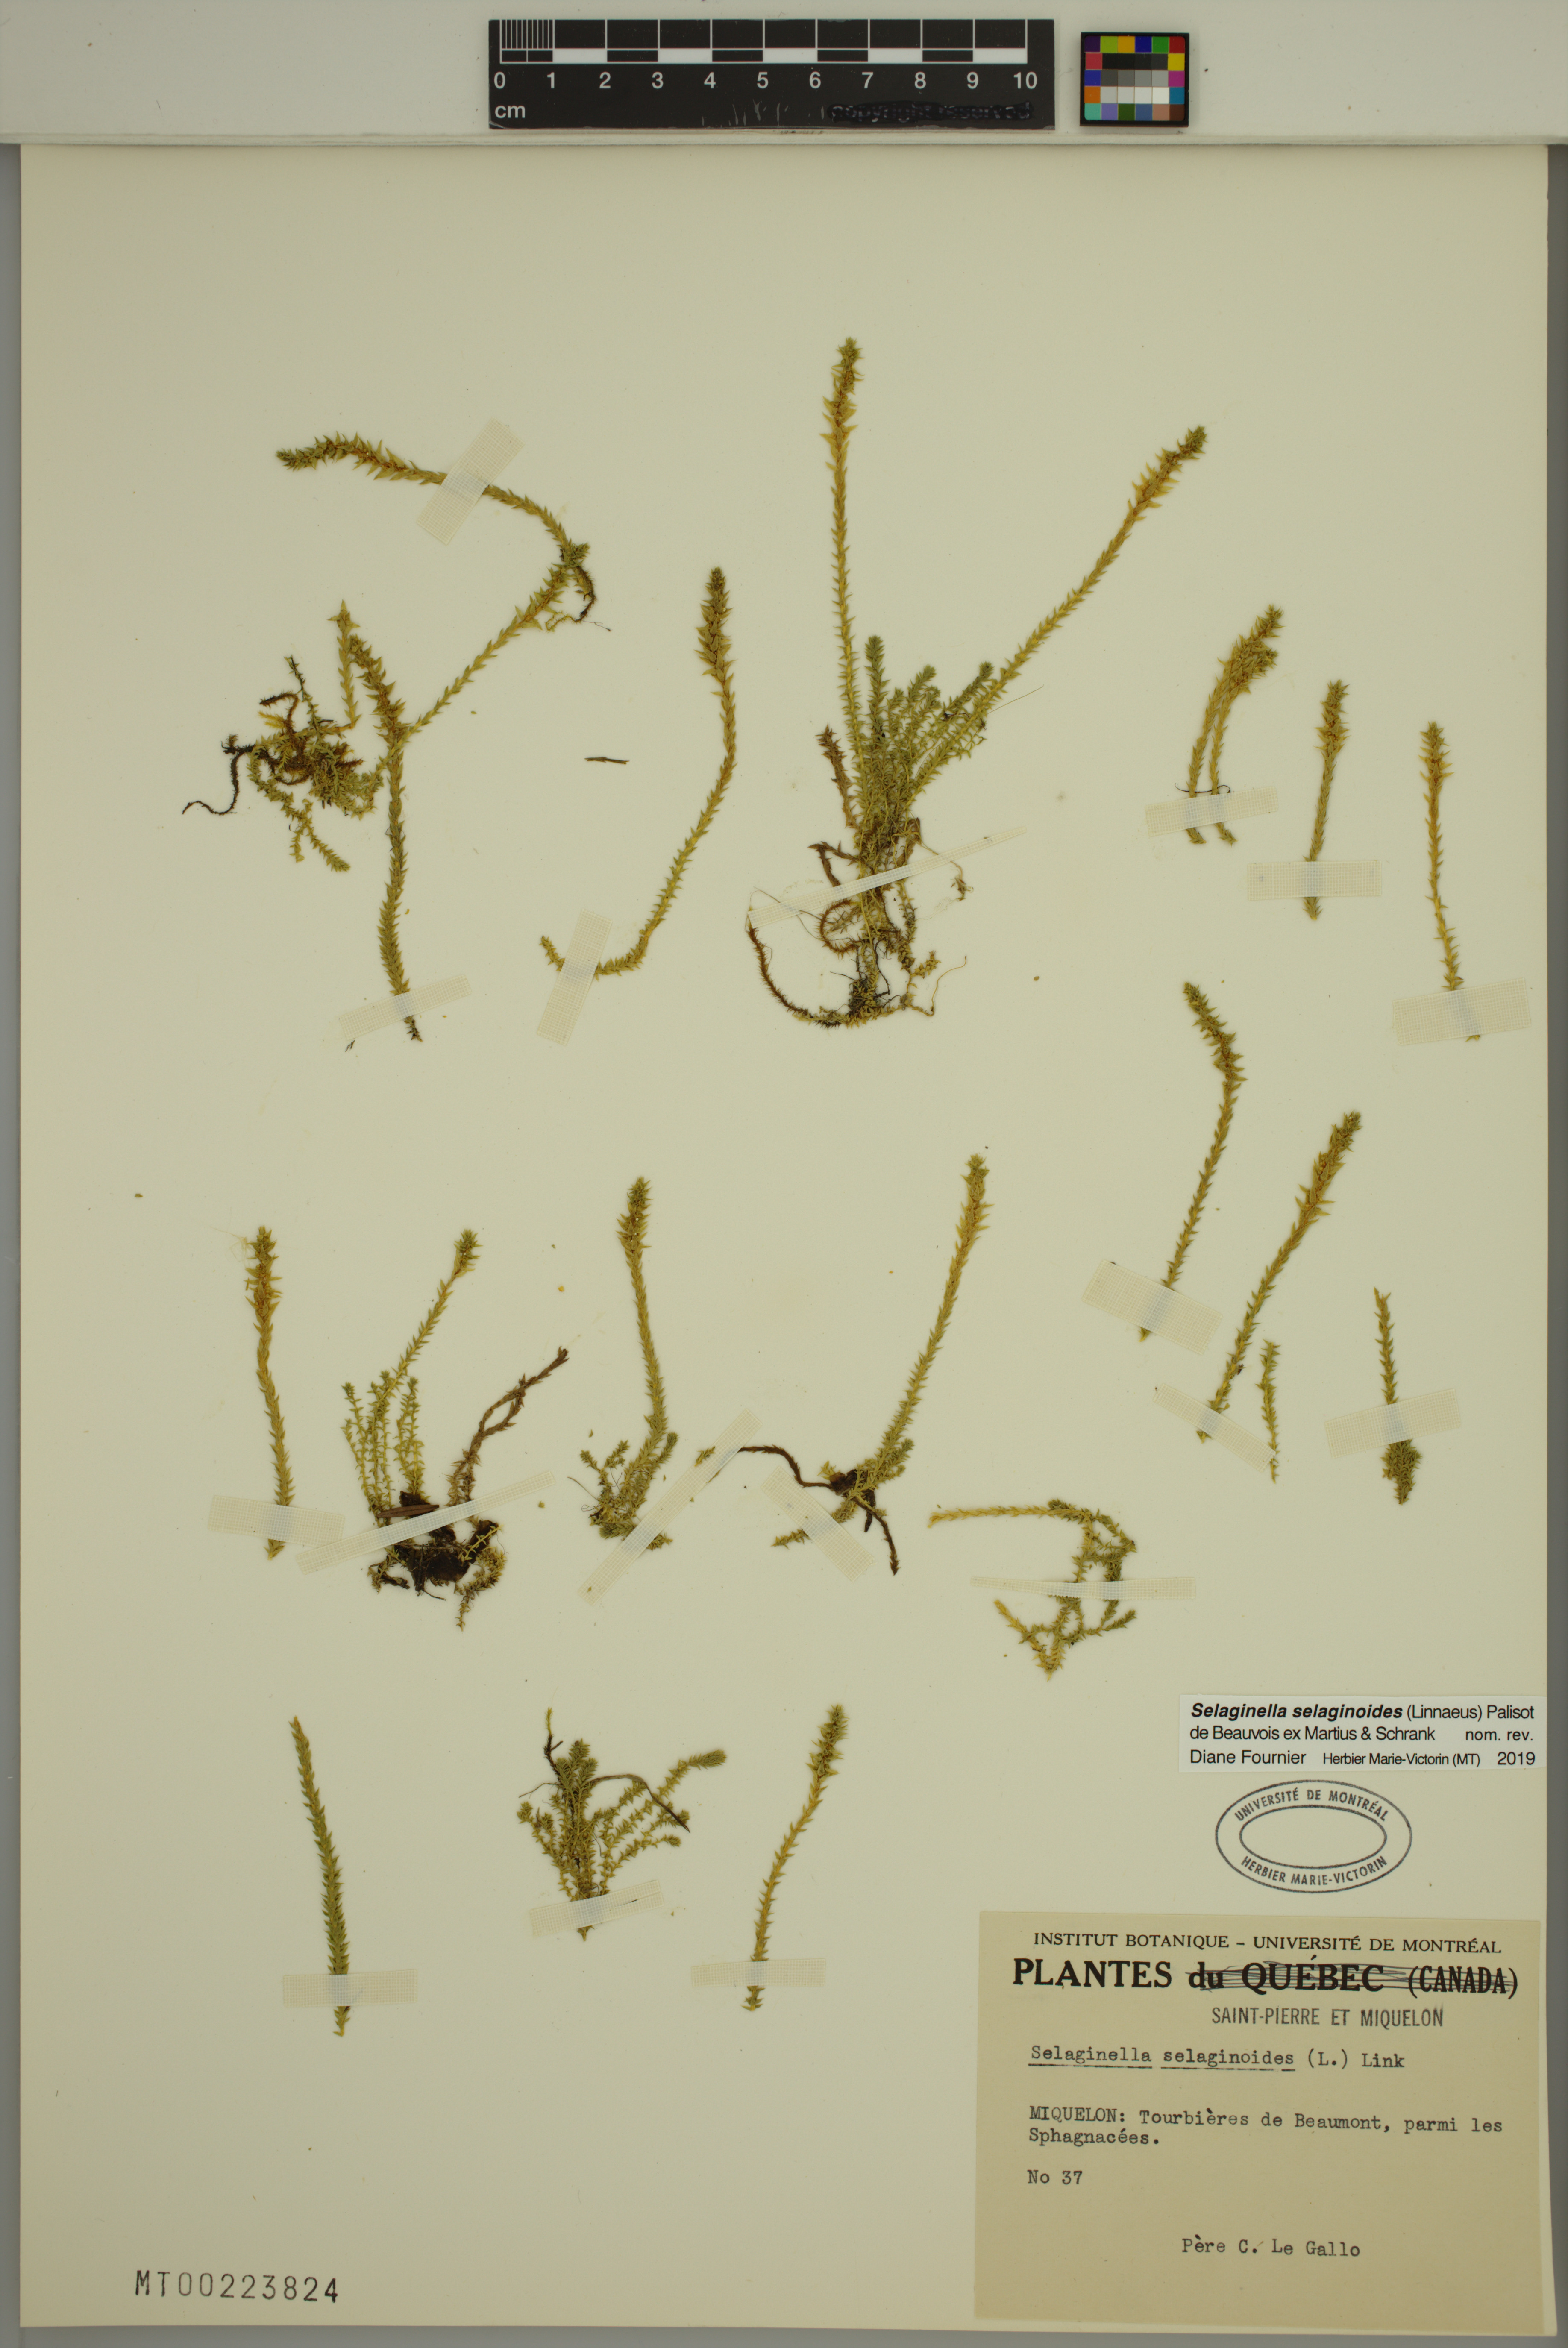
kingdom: Plantae
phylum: Tracheophyta
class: Lycopodiopsida
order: Selaginellales
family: Selaginellaceae
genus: Selaginella
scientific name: Selaginella selaginoides
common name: Prickly mountain-moss
